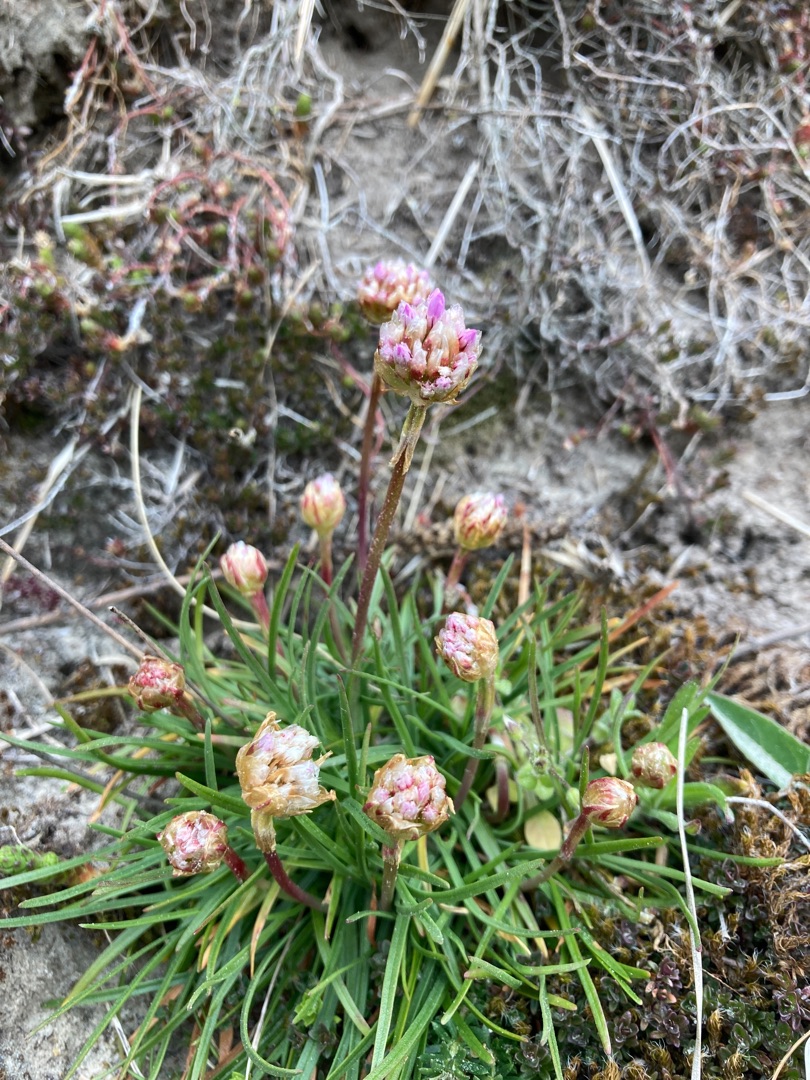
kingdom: Plantae
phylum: Tracheophyta
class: Magnoliopsida
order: Caryophyllales
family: Plumbaginaceae
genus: Armeria
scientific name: Armeria maritima
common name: Engelskgræs
